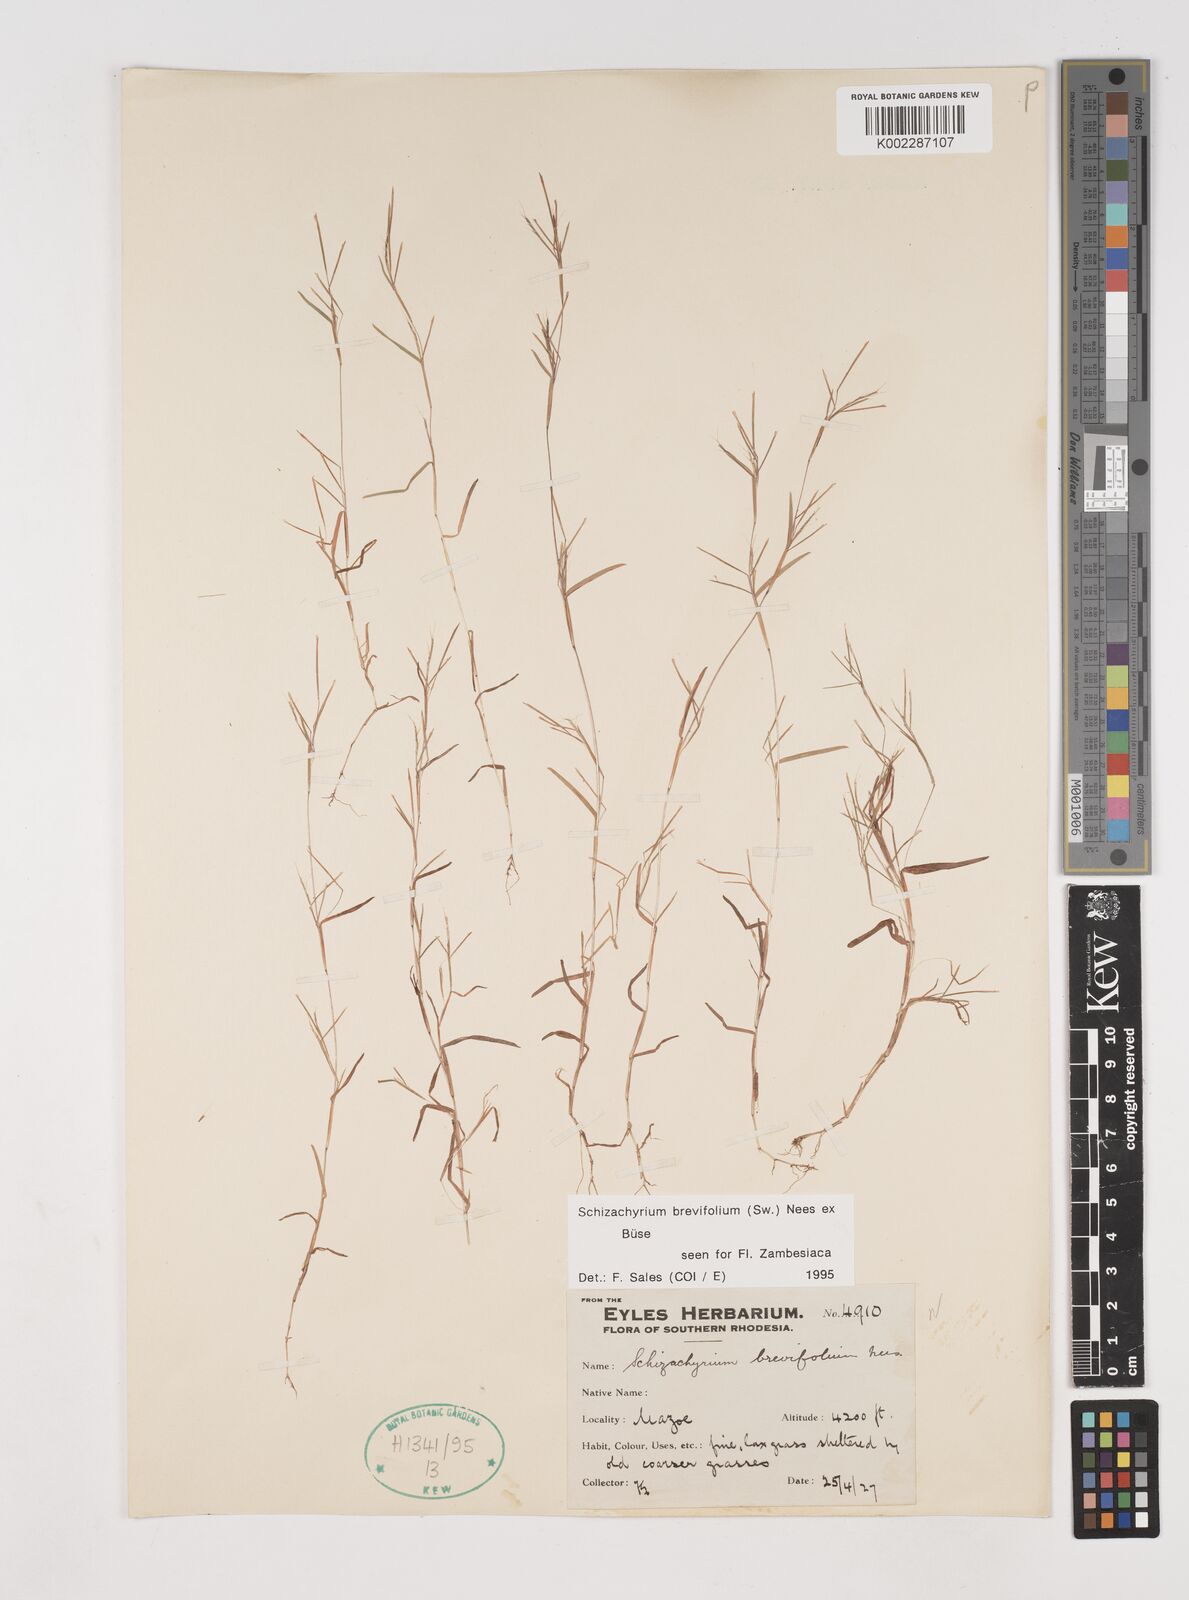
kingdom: Plantae
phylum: Tracheophyta
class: Liliopsida
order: Poales
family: Poaceae
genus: Schizachyrium
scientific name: Schizachyrium brevifolium
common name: Serillo dulce
